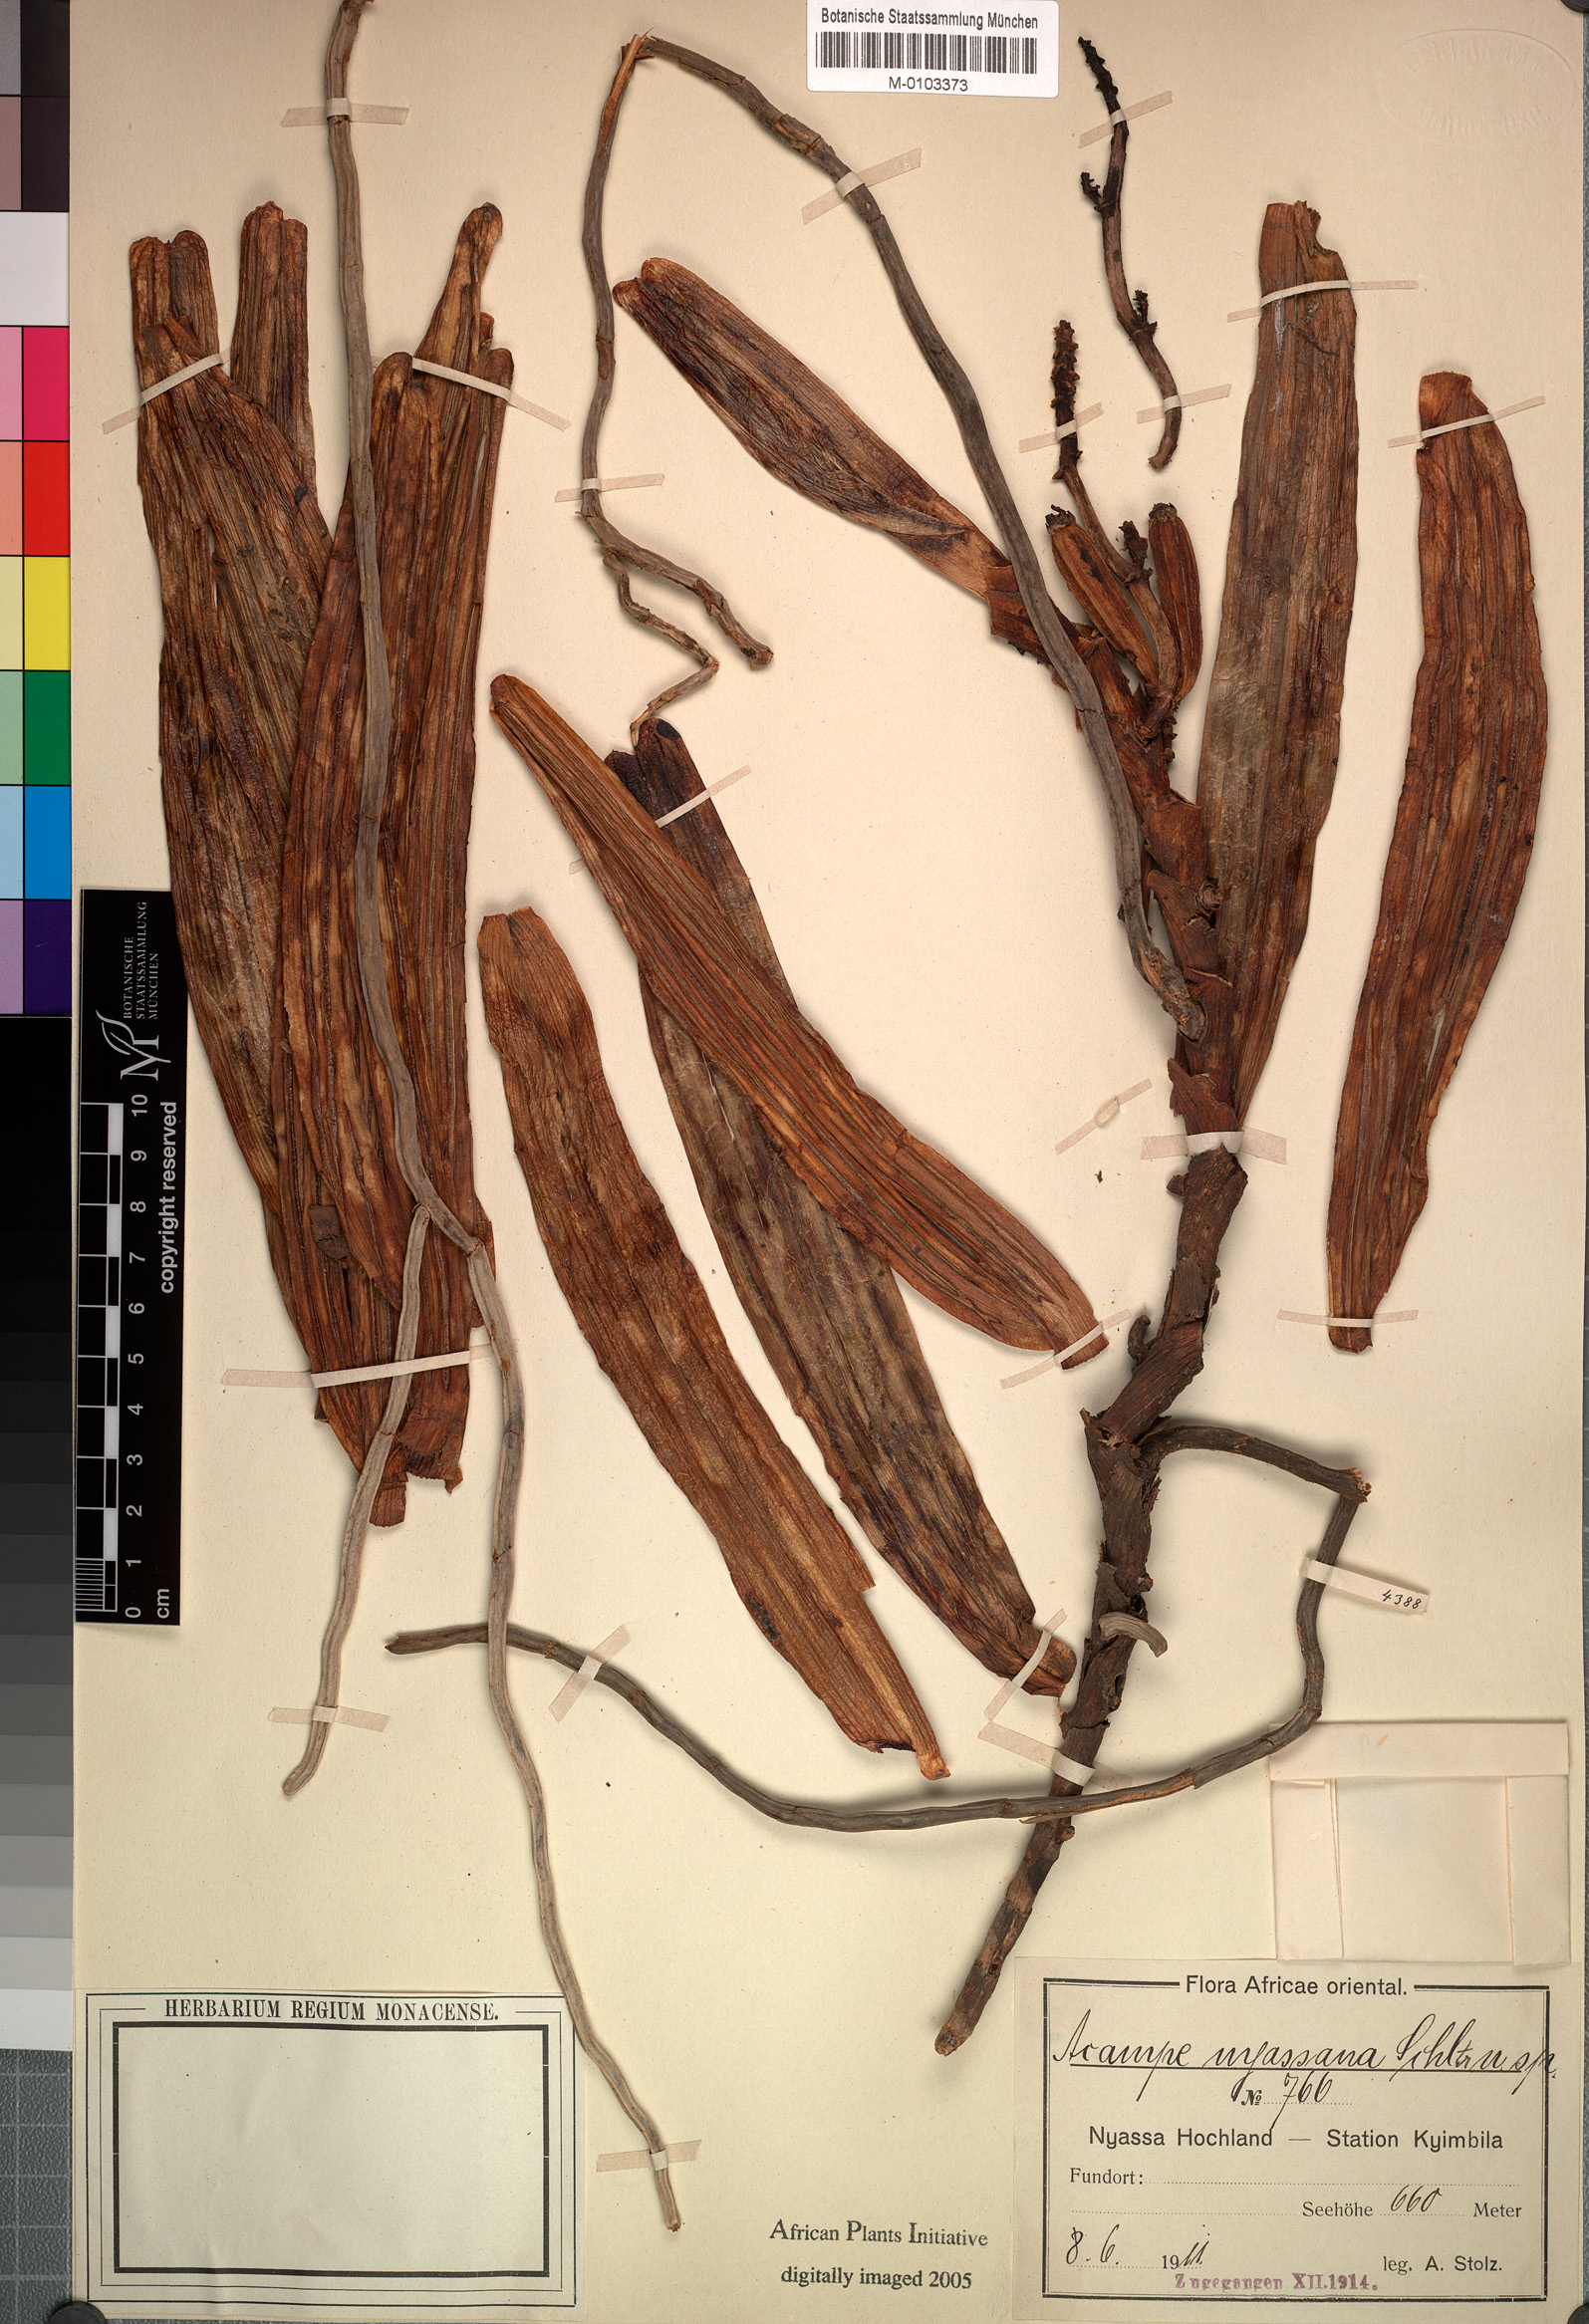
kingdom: Plantae
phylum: Tracheophyta
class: Liliopsida
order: Asparagales
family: Orchidaceae
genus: Acampe
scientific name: Acampe pachyglossa
